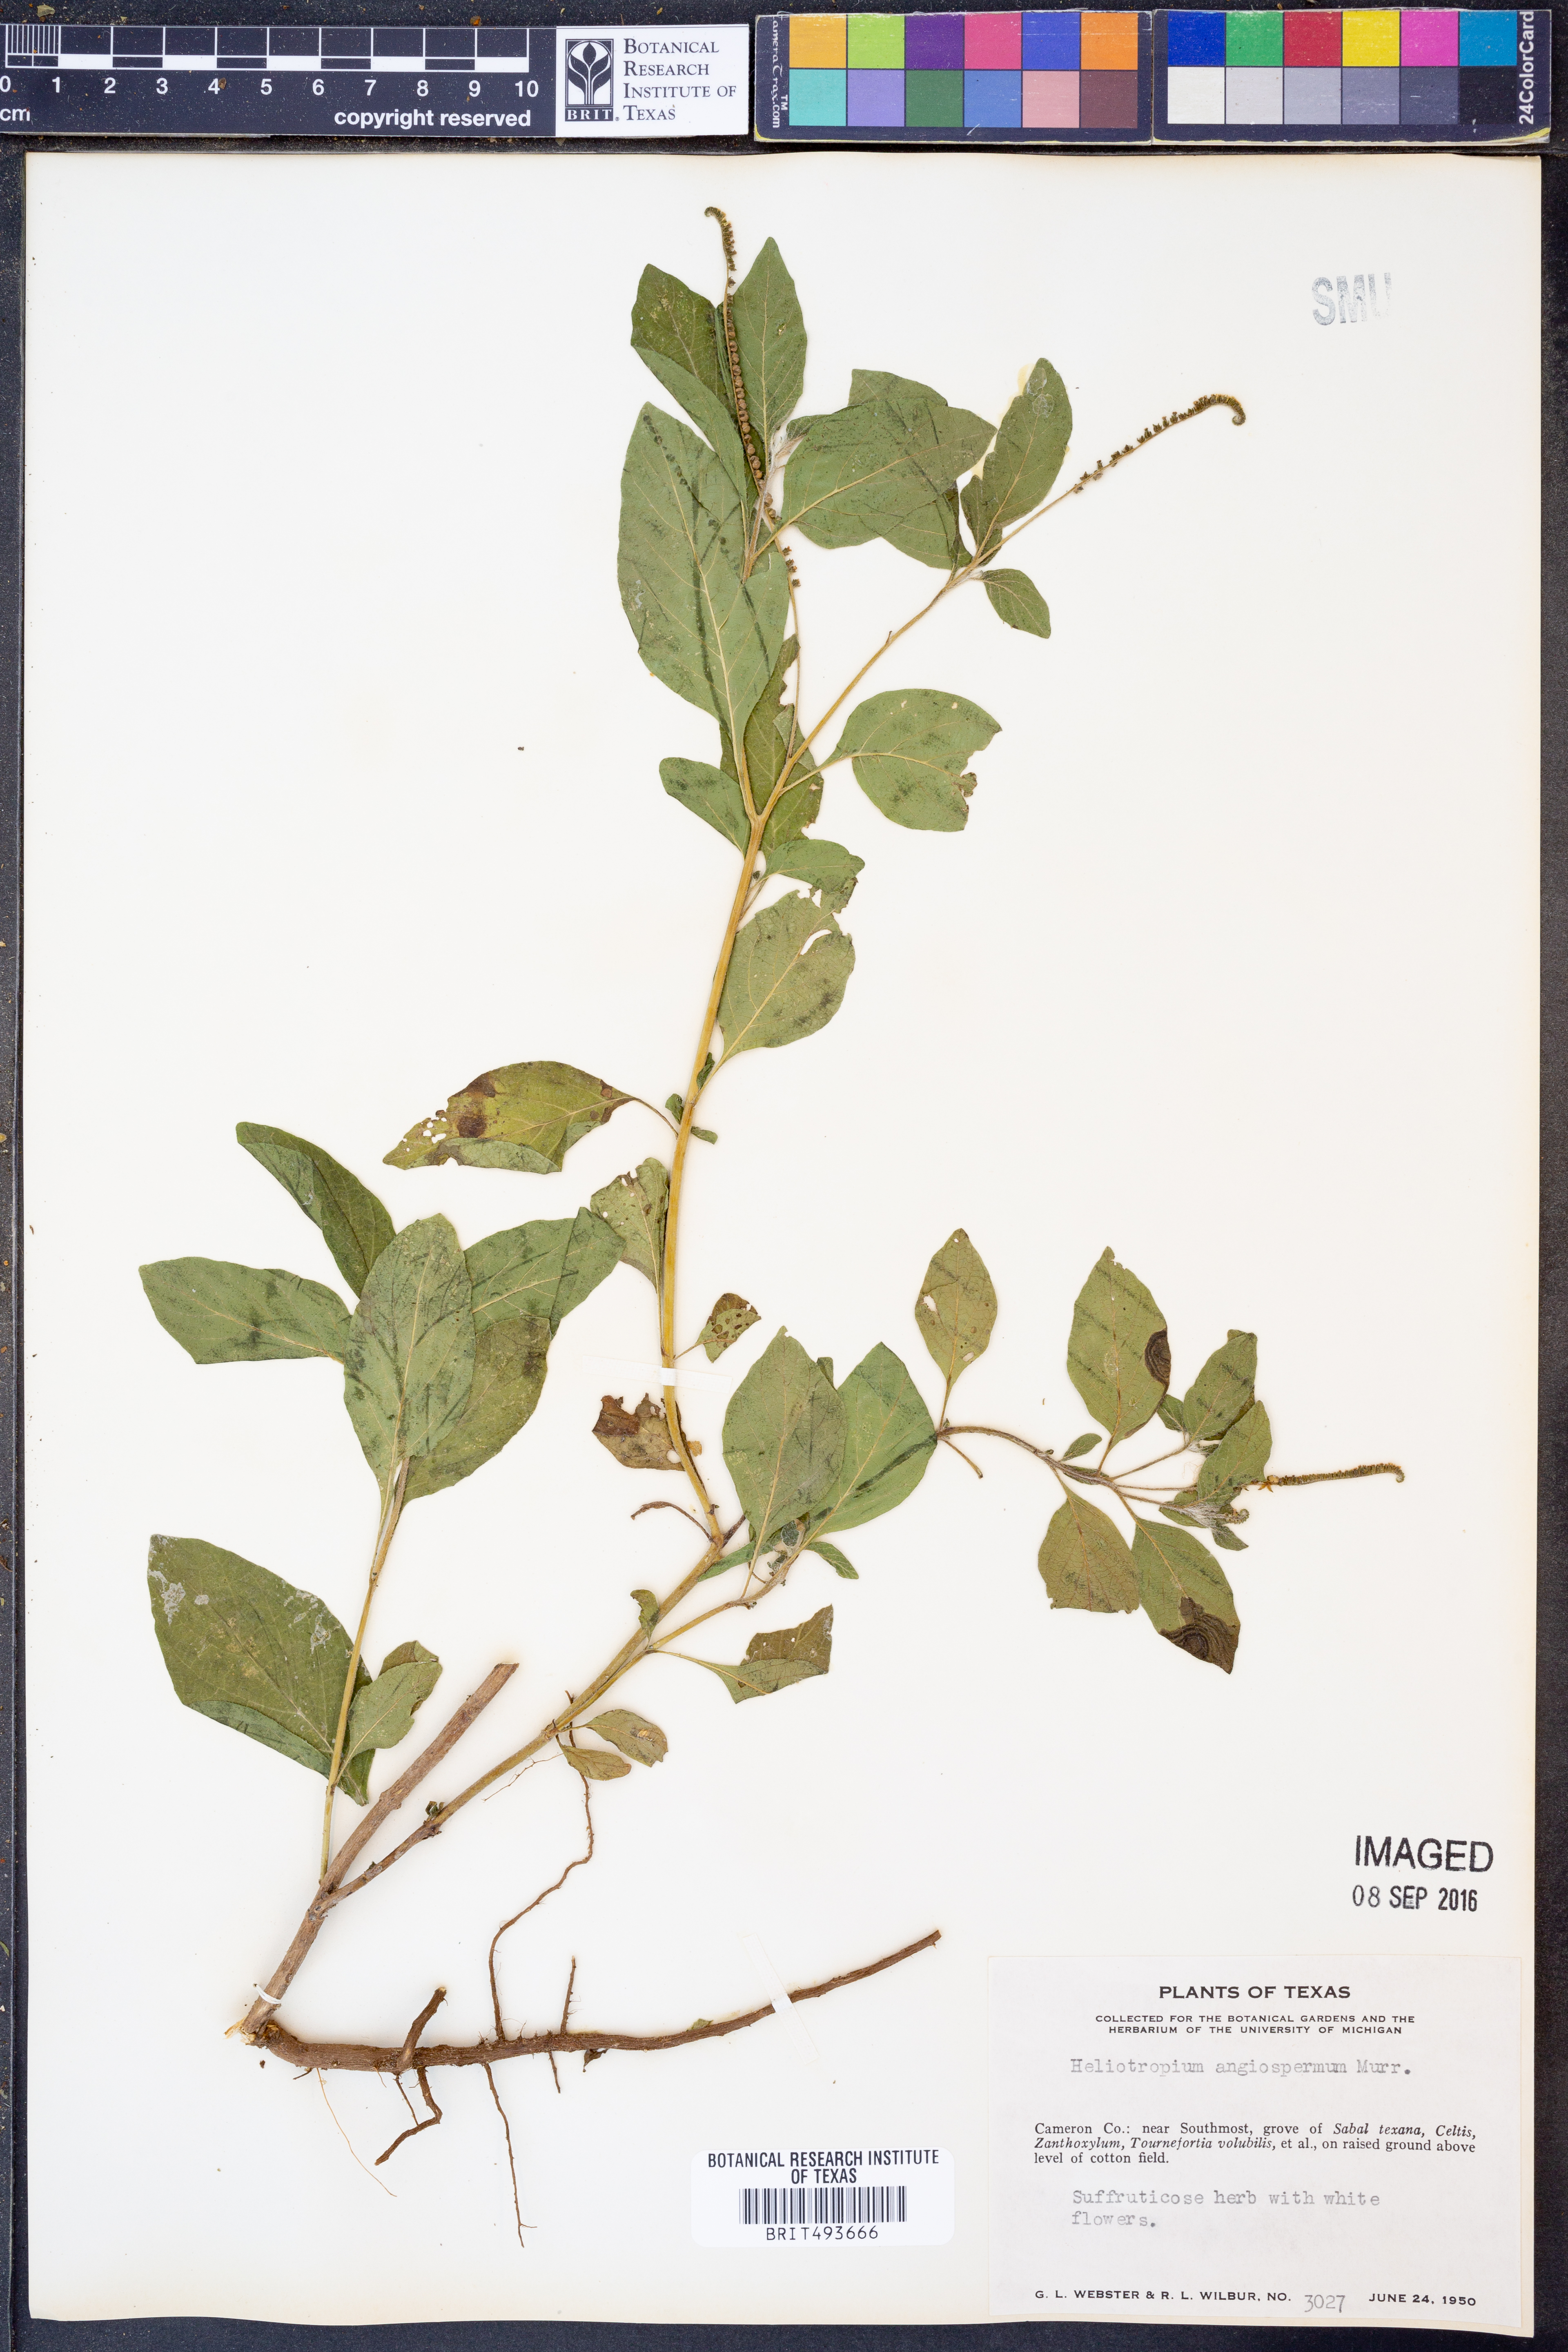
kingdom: Plantae
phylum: Tracheophyta
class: Magnoliopsida
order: Boraginales
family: Heliotropiaceae
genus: Heliotropium
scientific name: Heliotropium angiospermum
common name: Eye bright
